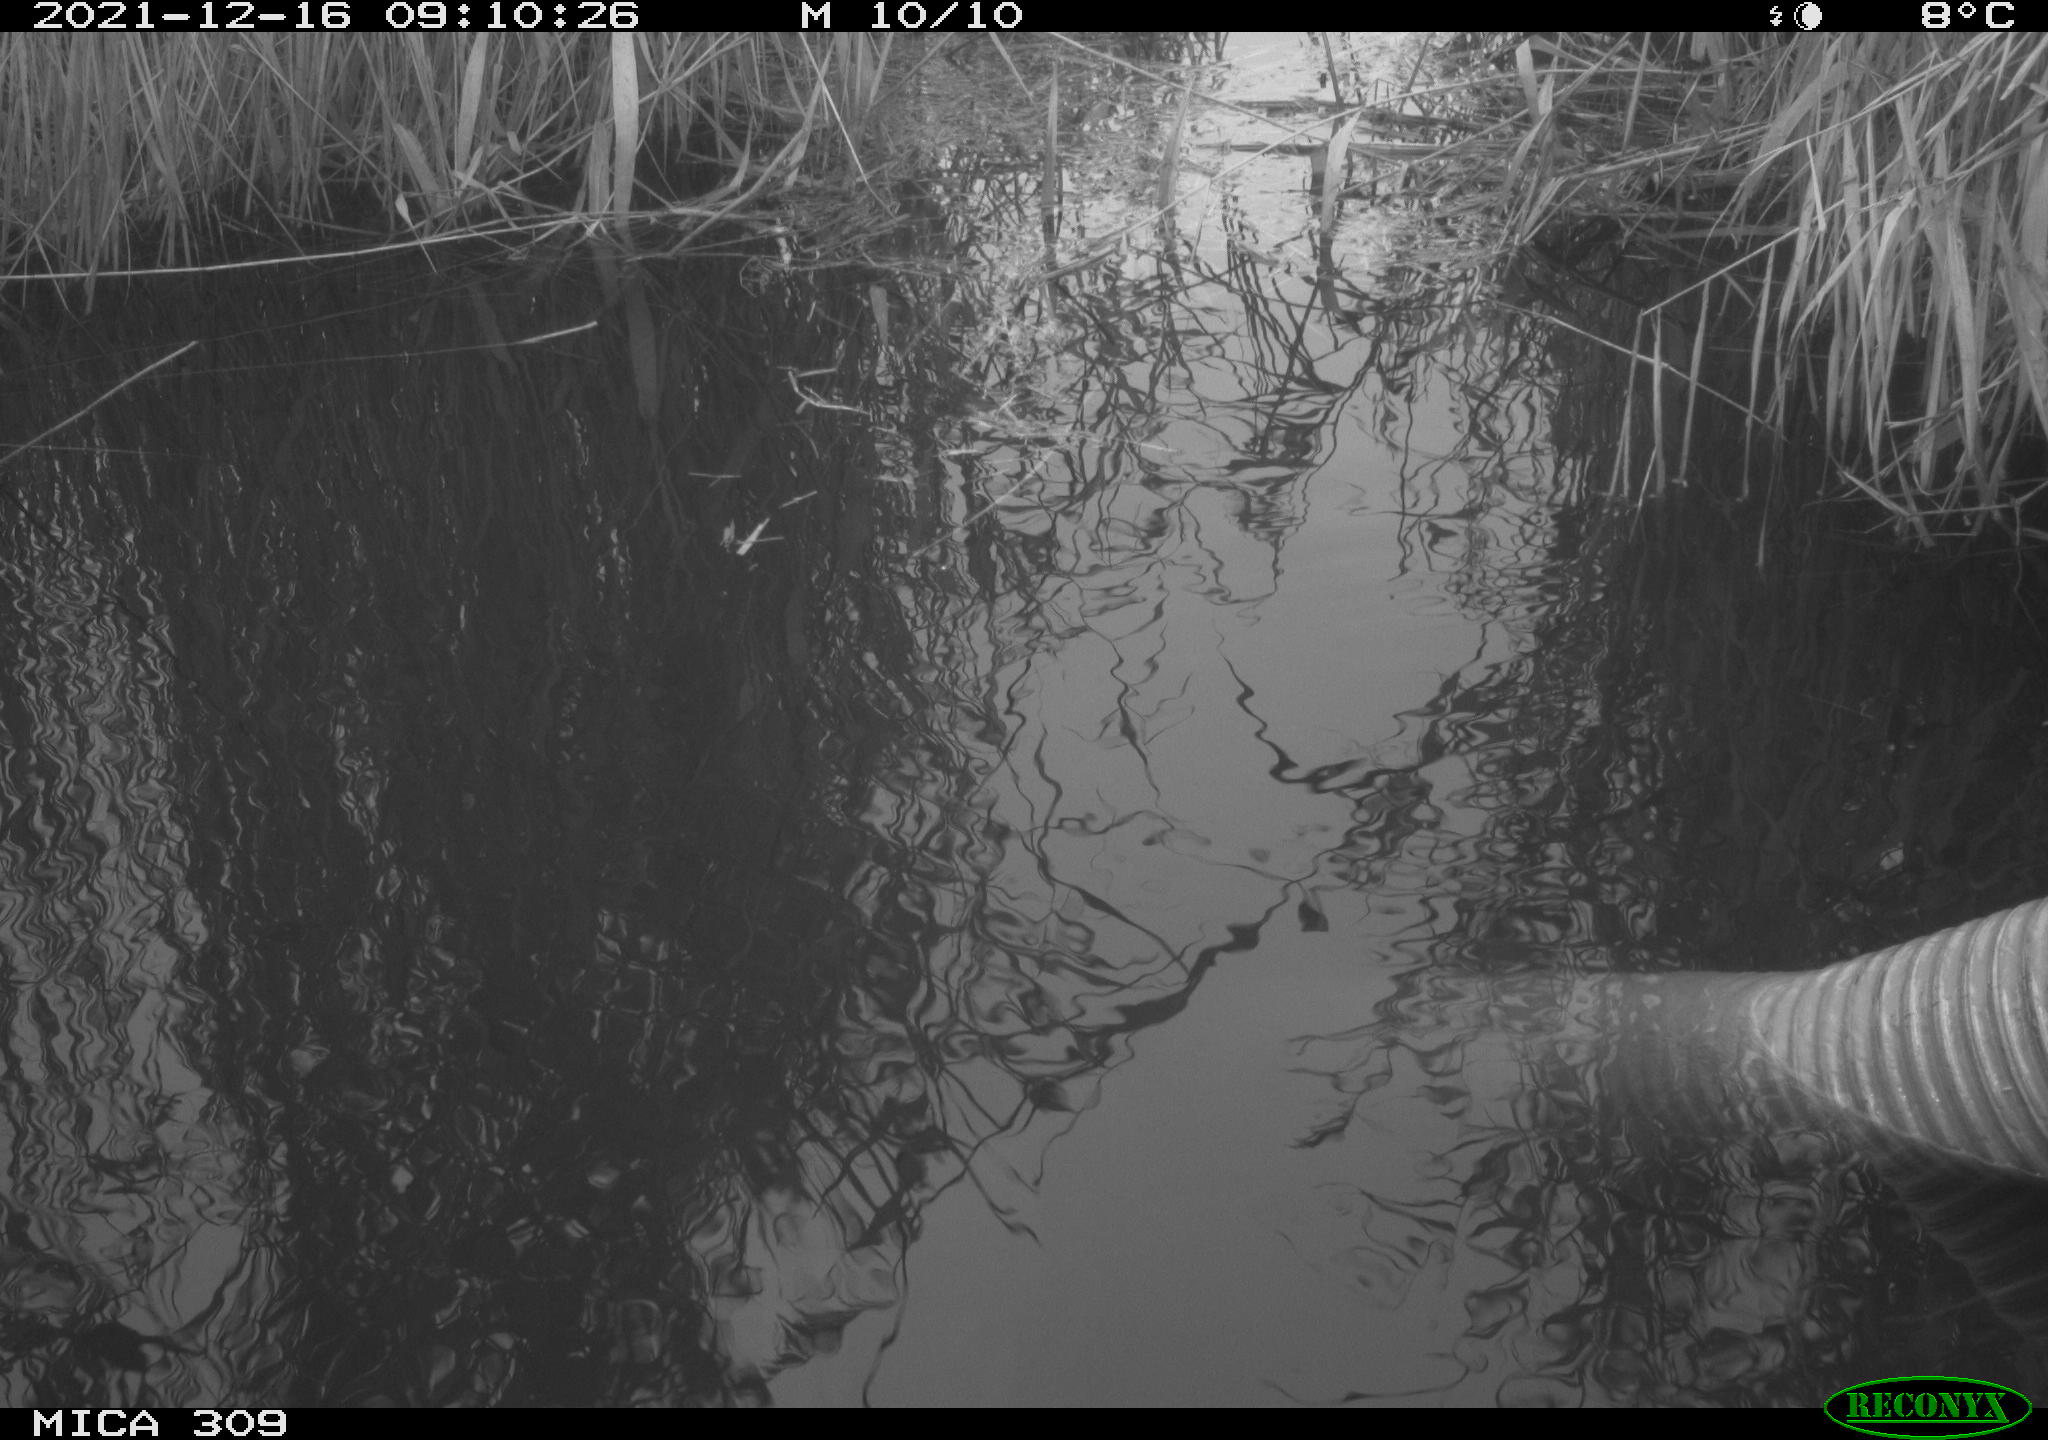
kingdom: Animalia
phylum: Chordata
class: Aves
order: Gruiformes
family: Rallidae
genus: Gallinula
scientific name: Gallinula chloropus
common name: Common moorhen
